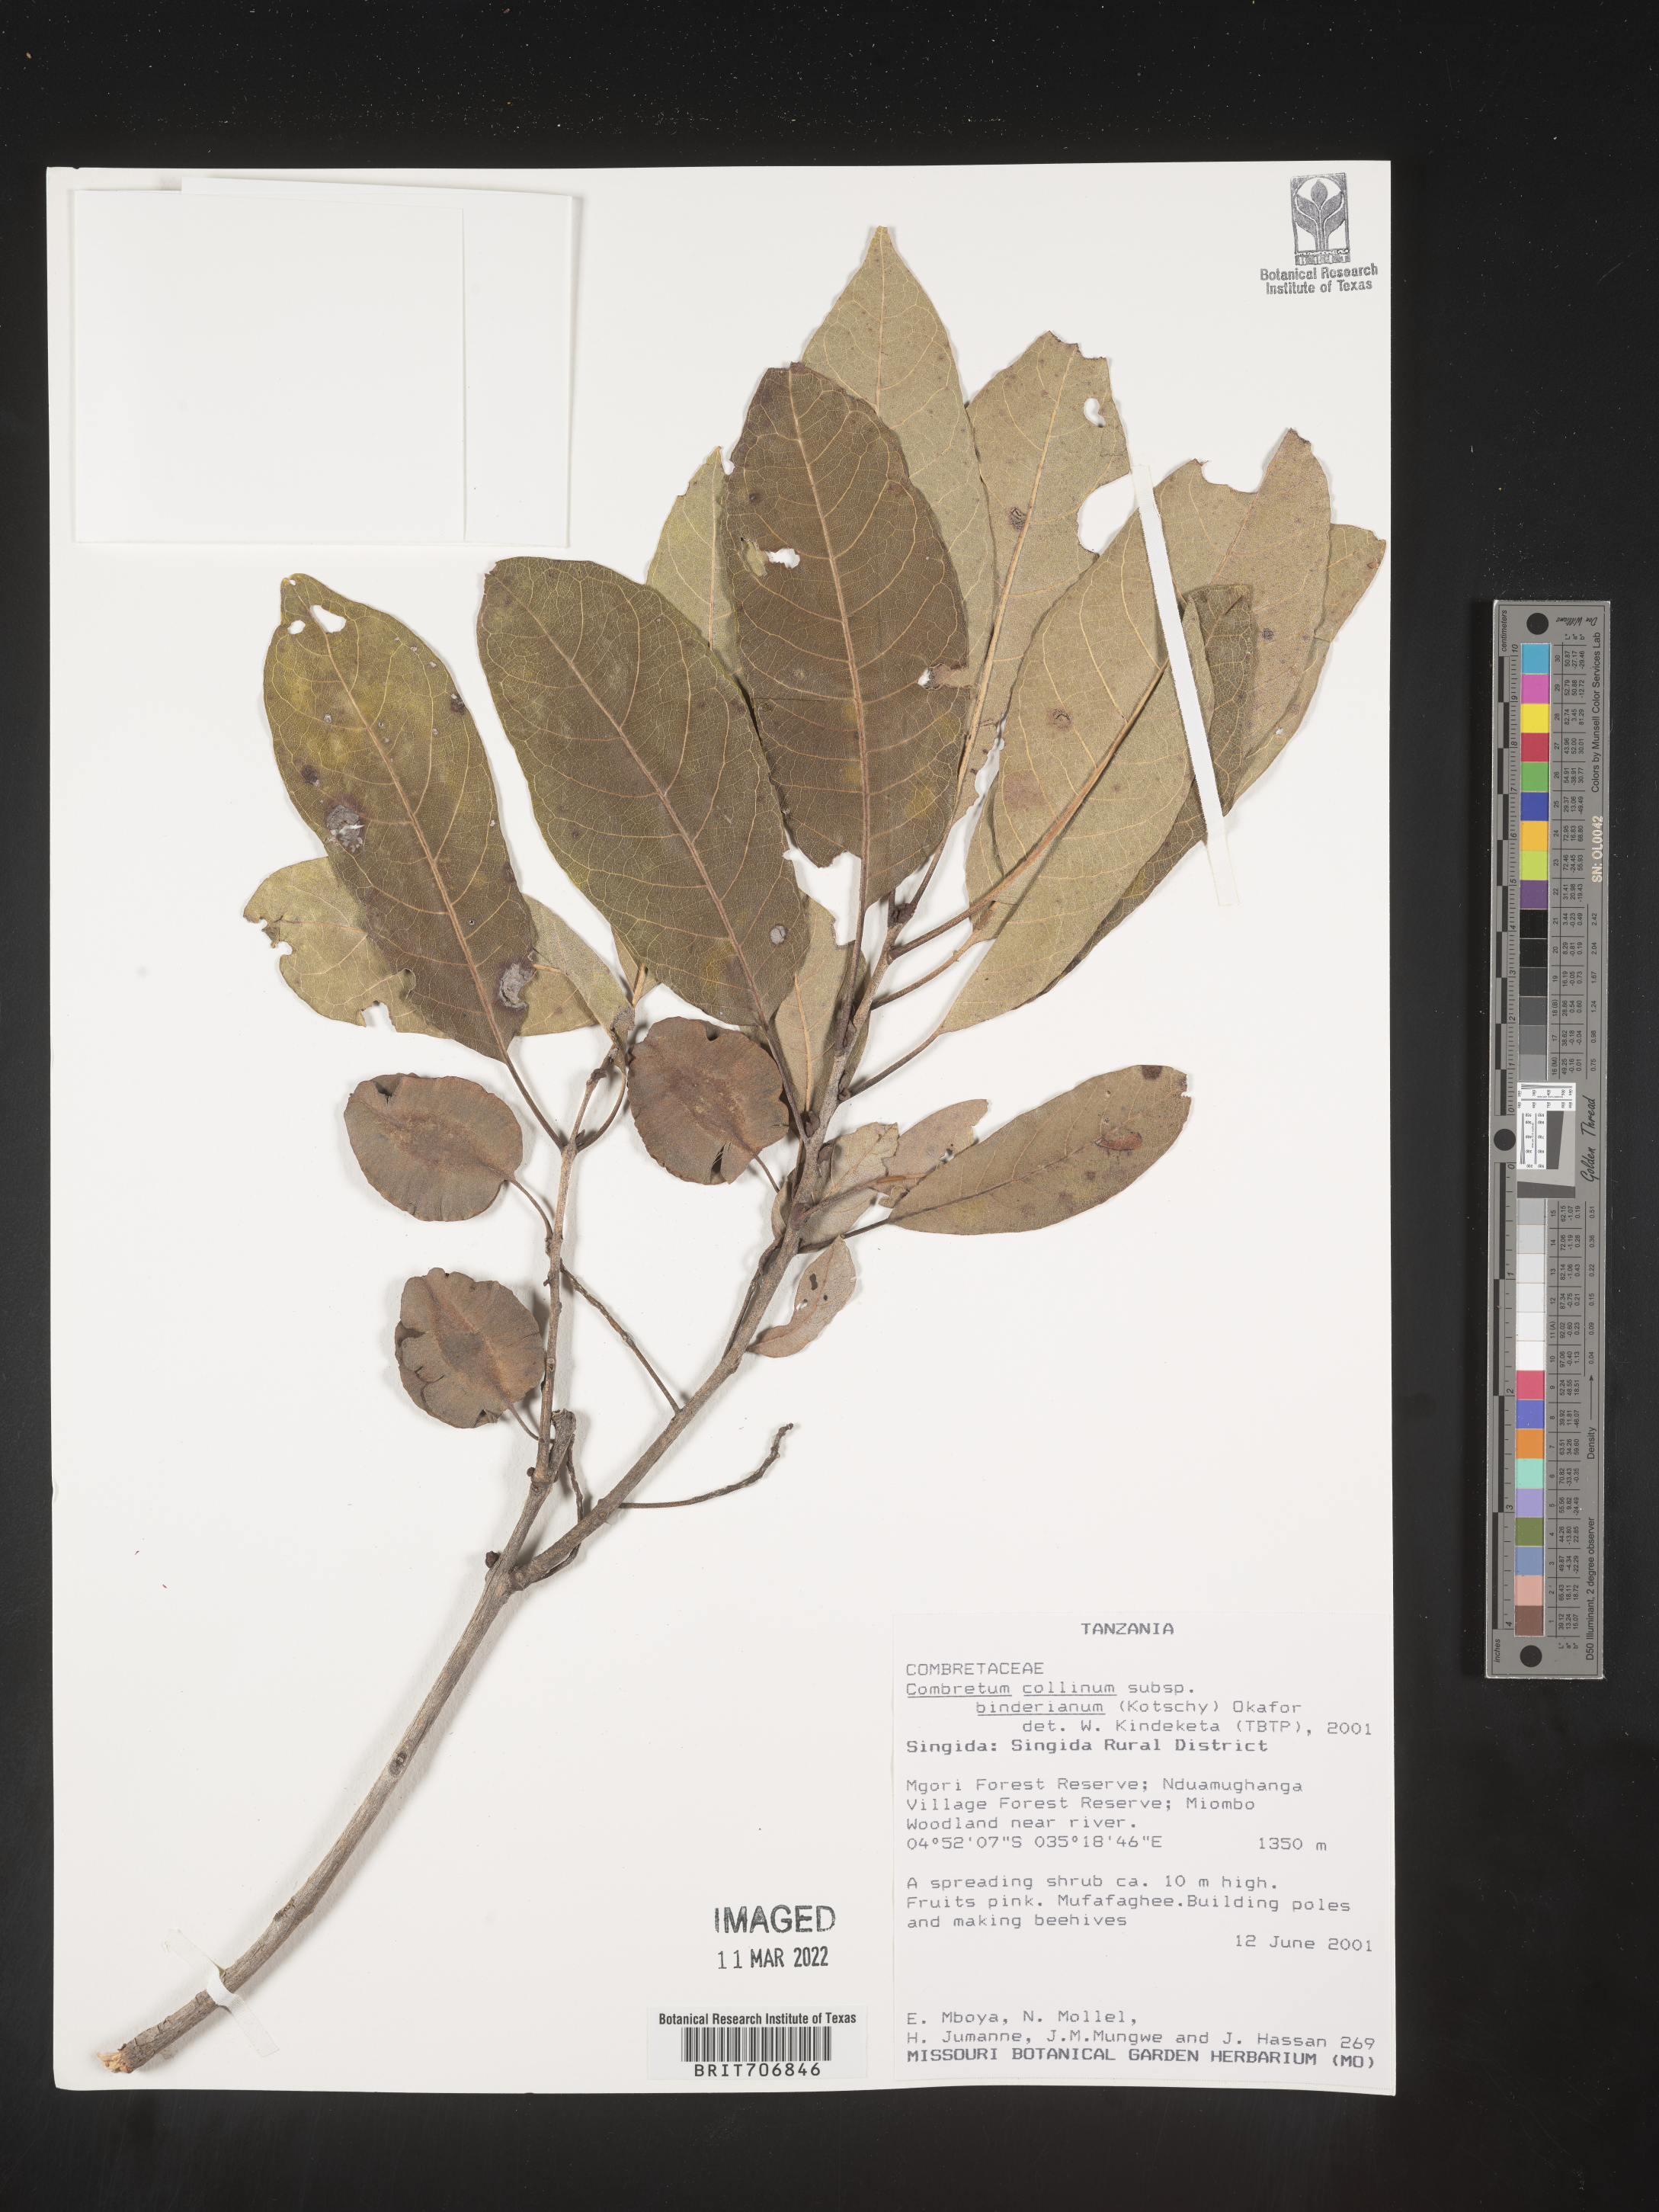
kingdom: Plantae
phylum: Tracheophyta
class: Magnoliopsida
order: Myrtales
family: Combretaceae
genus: Combretum
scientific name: Combretum
